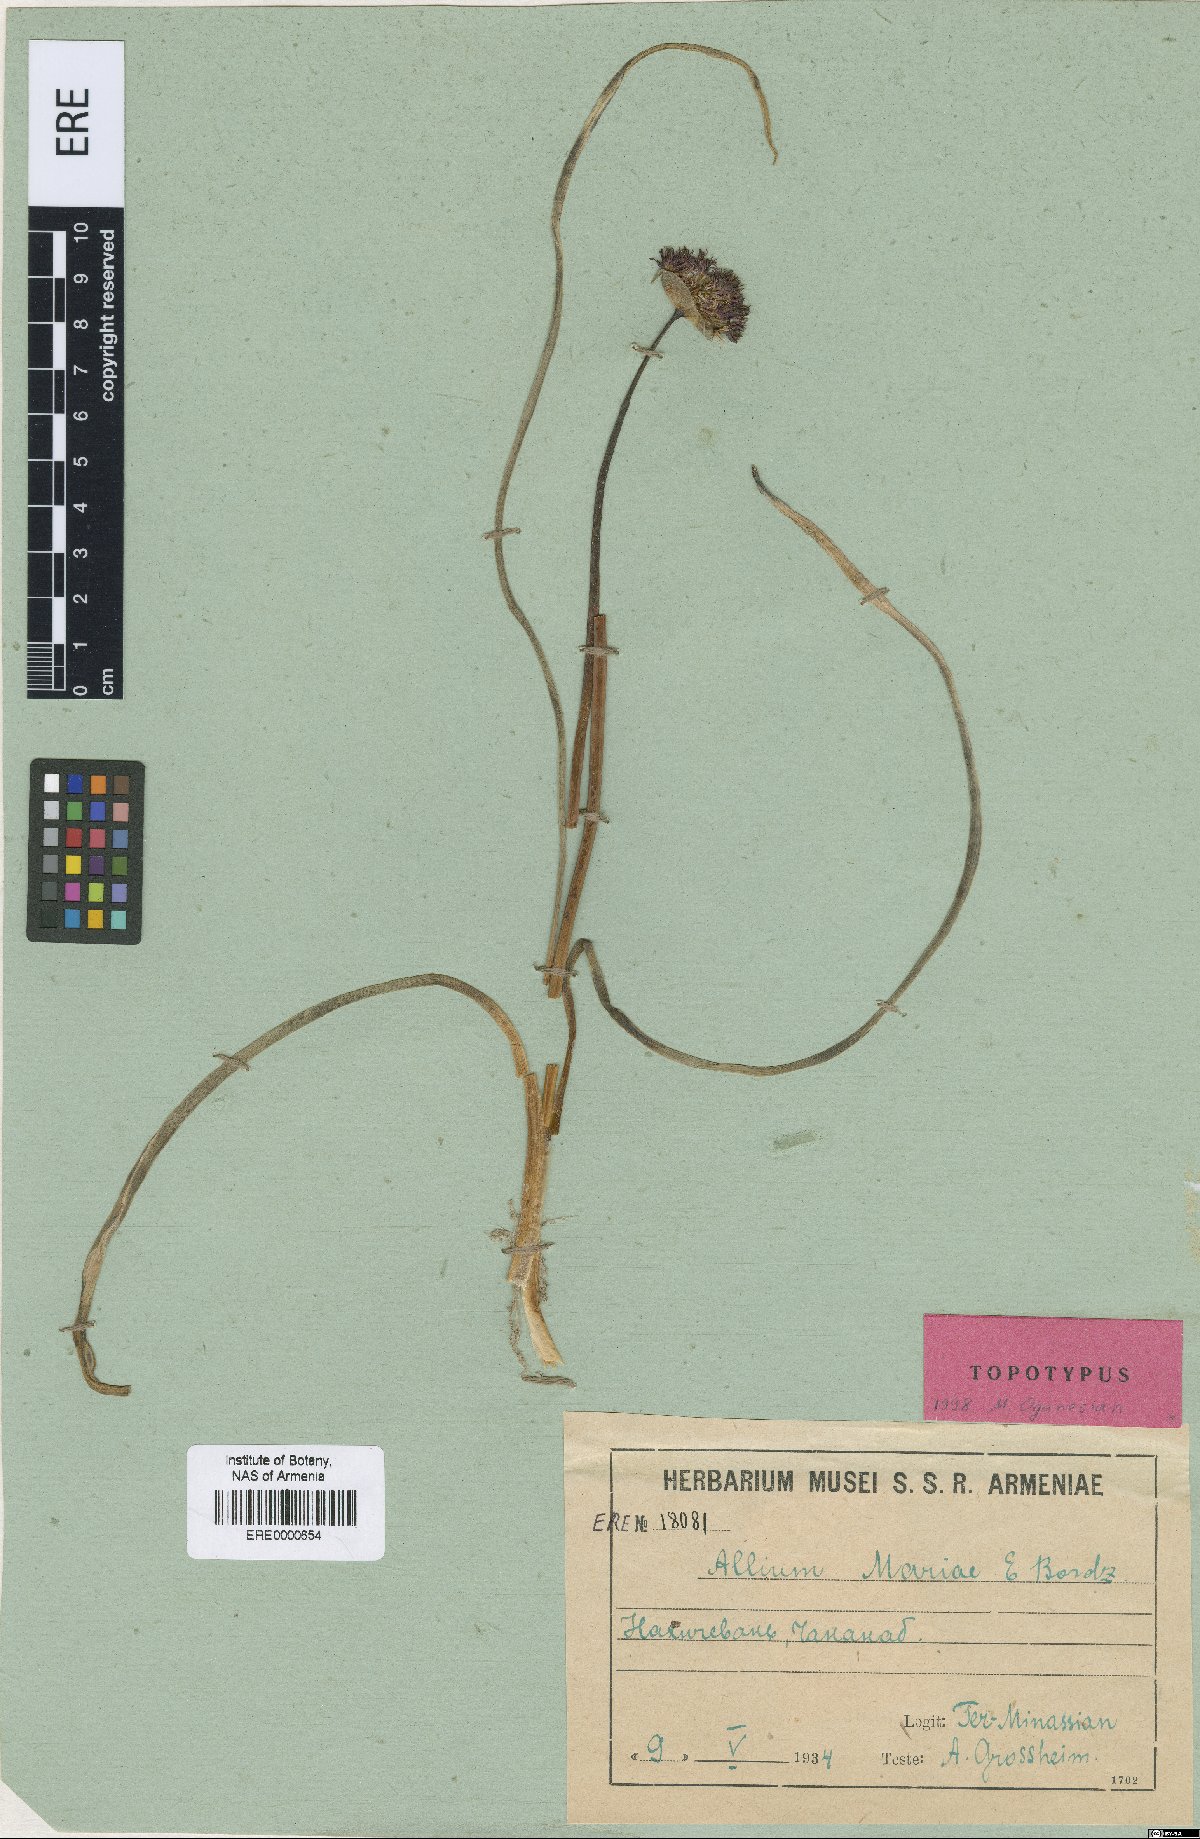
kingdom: Plantae
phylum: Tracheophyta
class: Liliopsida
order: Asparagales
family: Amaryllidaceae
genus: Allium
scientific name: Allium mariae
